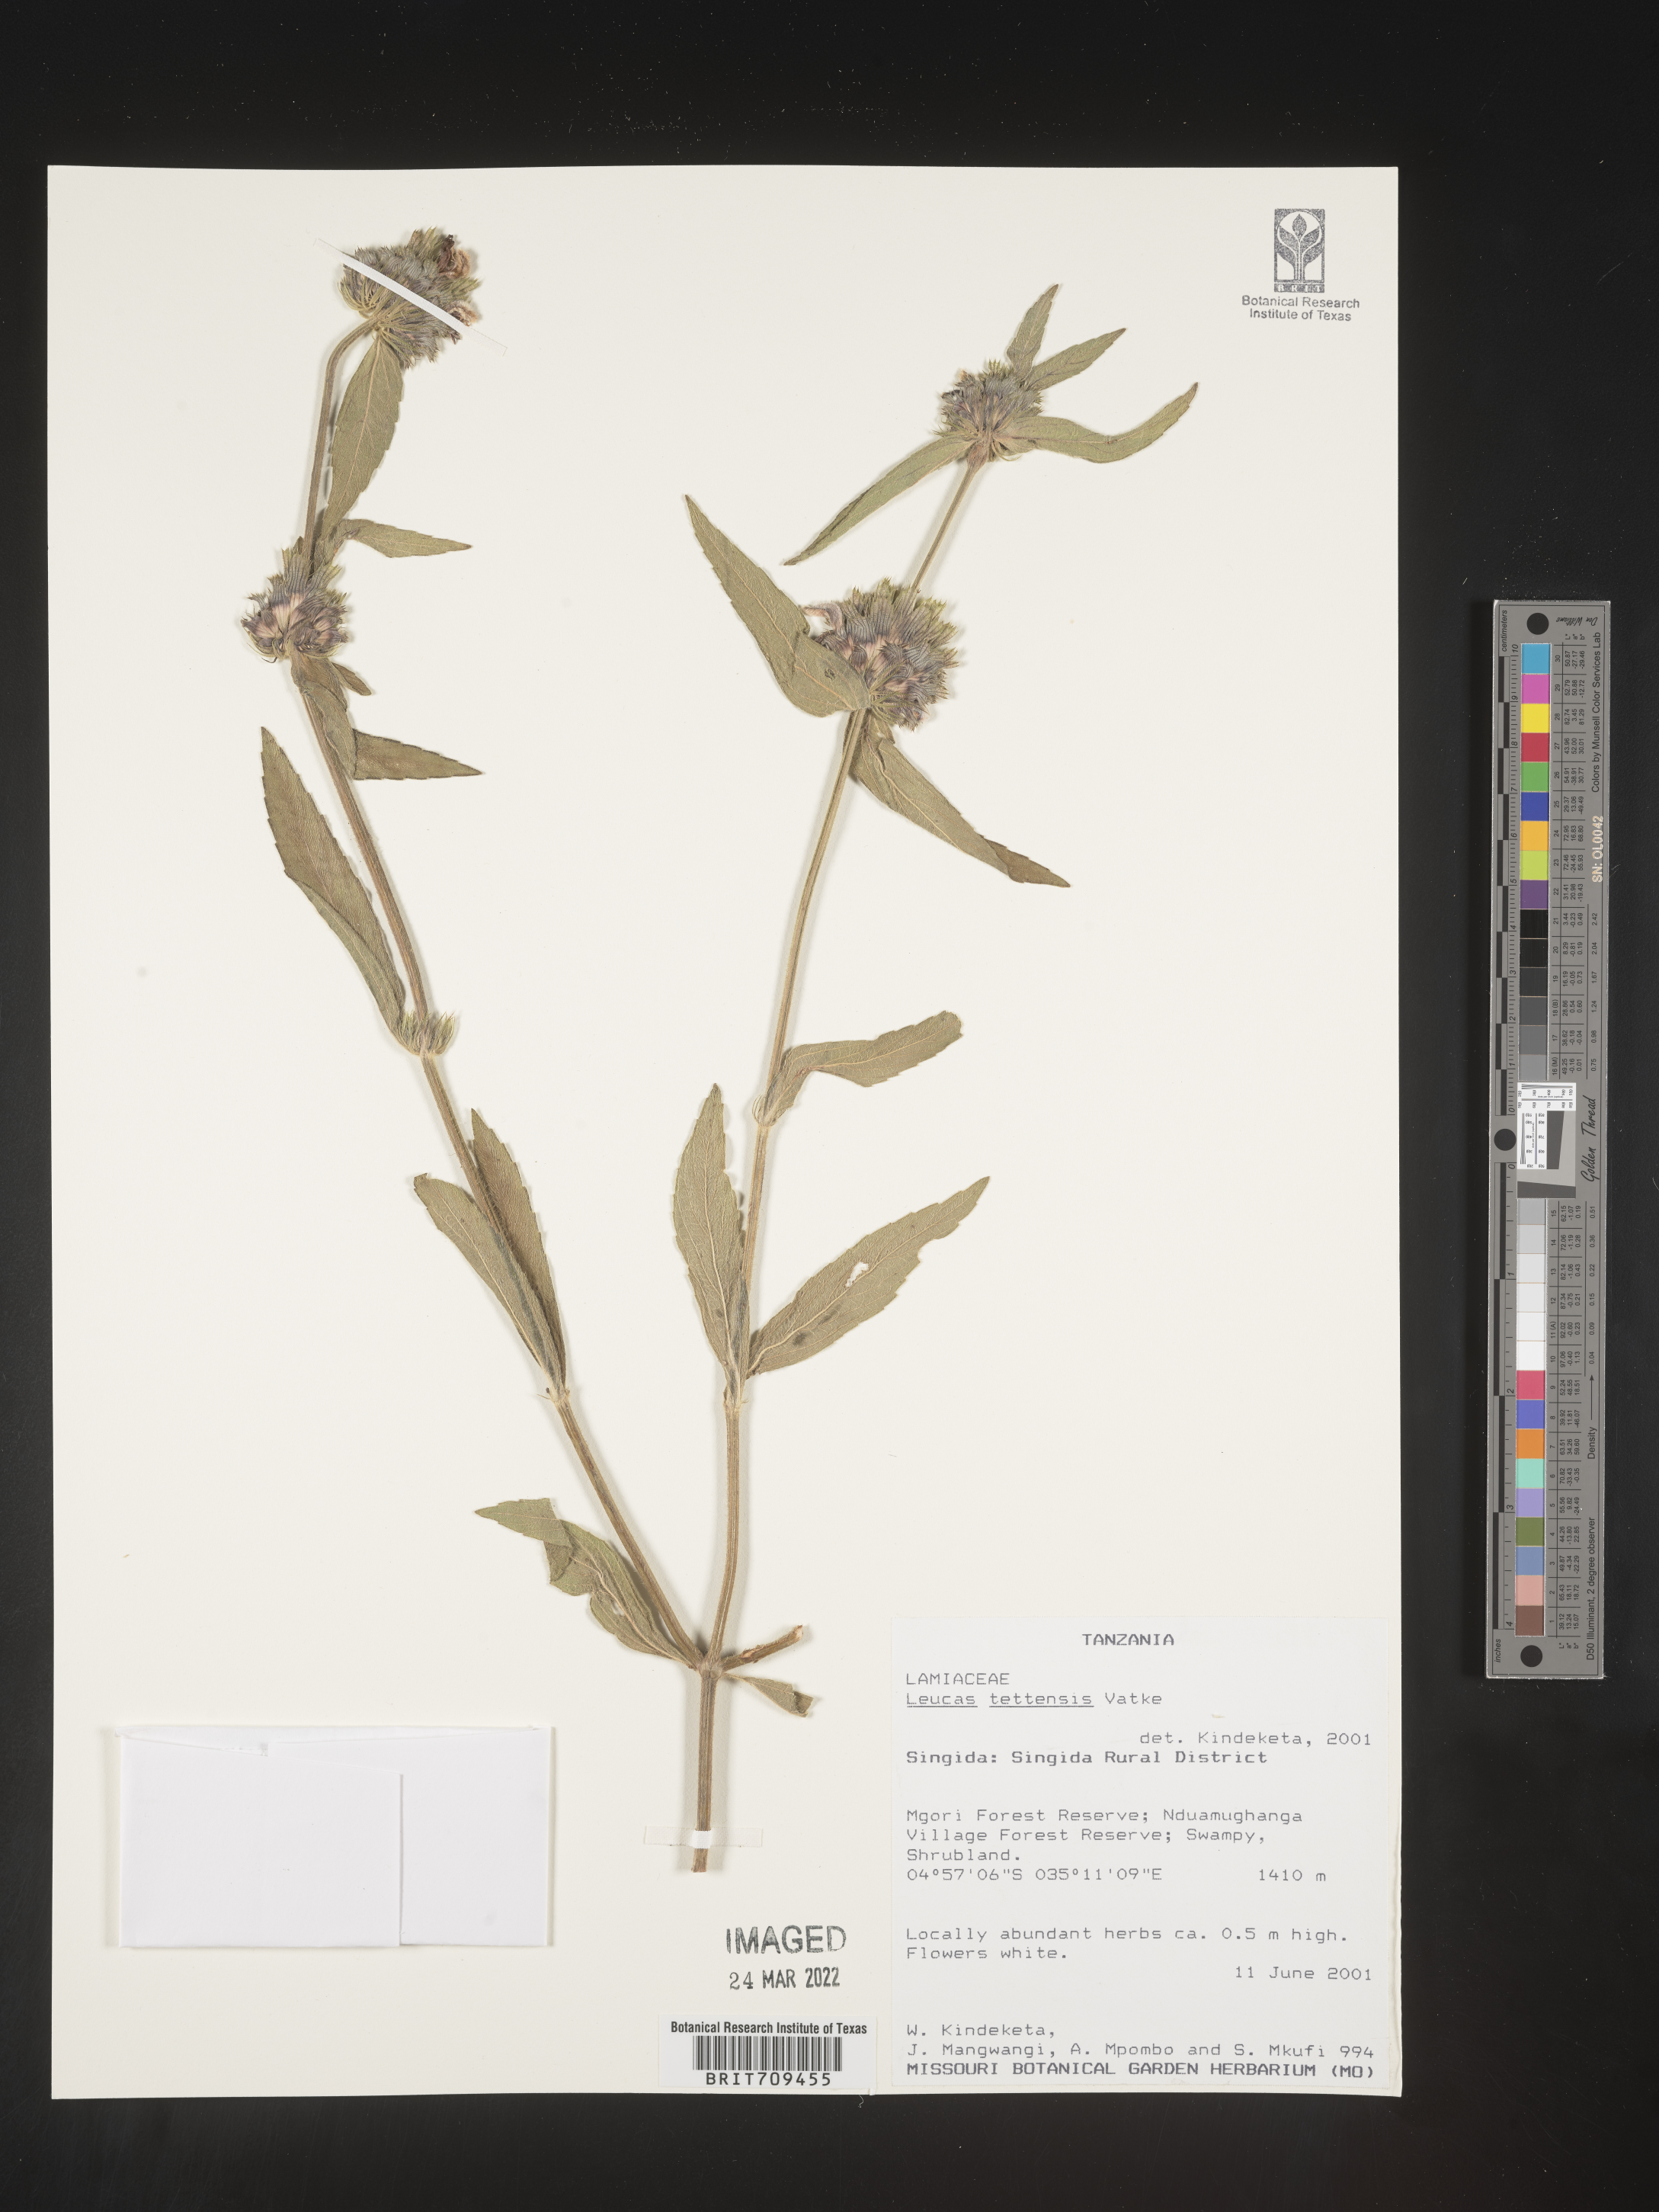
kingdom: Plantae
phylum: Tracheophyta
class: Magnoliopsida
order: Lamiales
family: Lamiaceae
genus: Leucas
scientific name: Leucas
